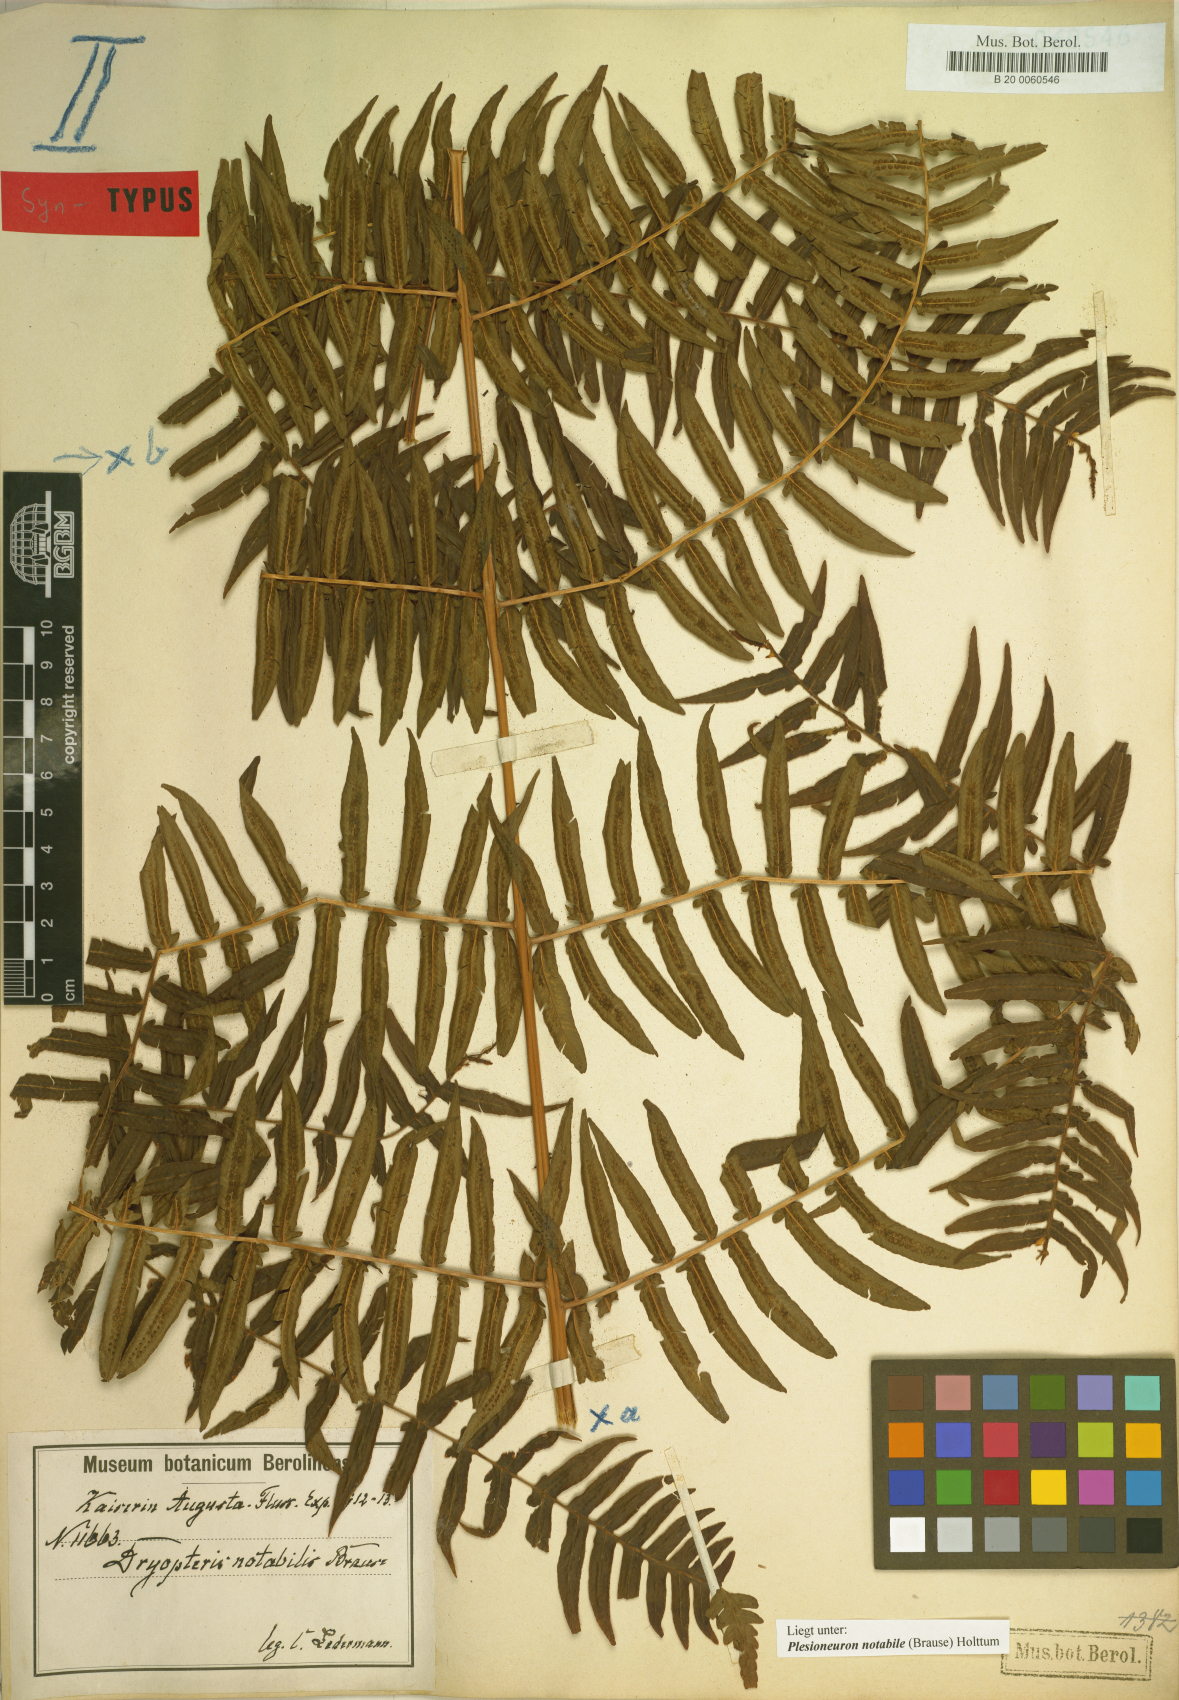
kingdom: Plantae
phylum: Tracheophyta
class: Polypodiopsida
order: Polypodiales
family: Thelypteridaceae
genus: Plesioneuron
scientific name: Plesioneuron notabile
